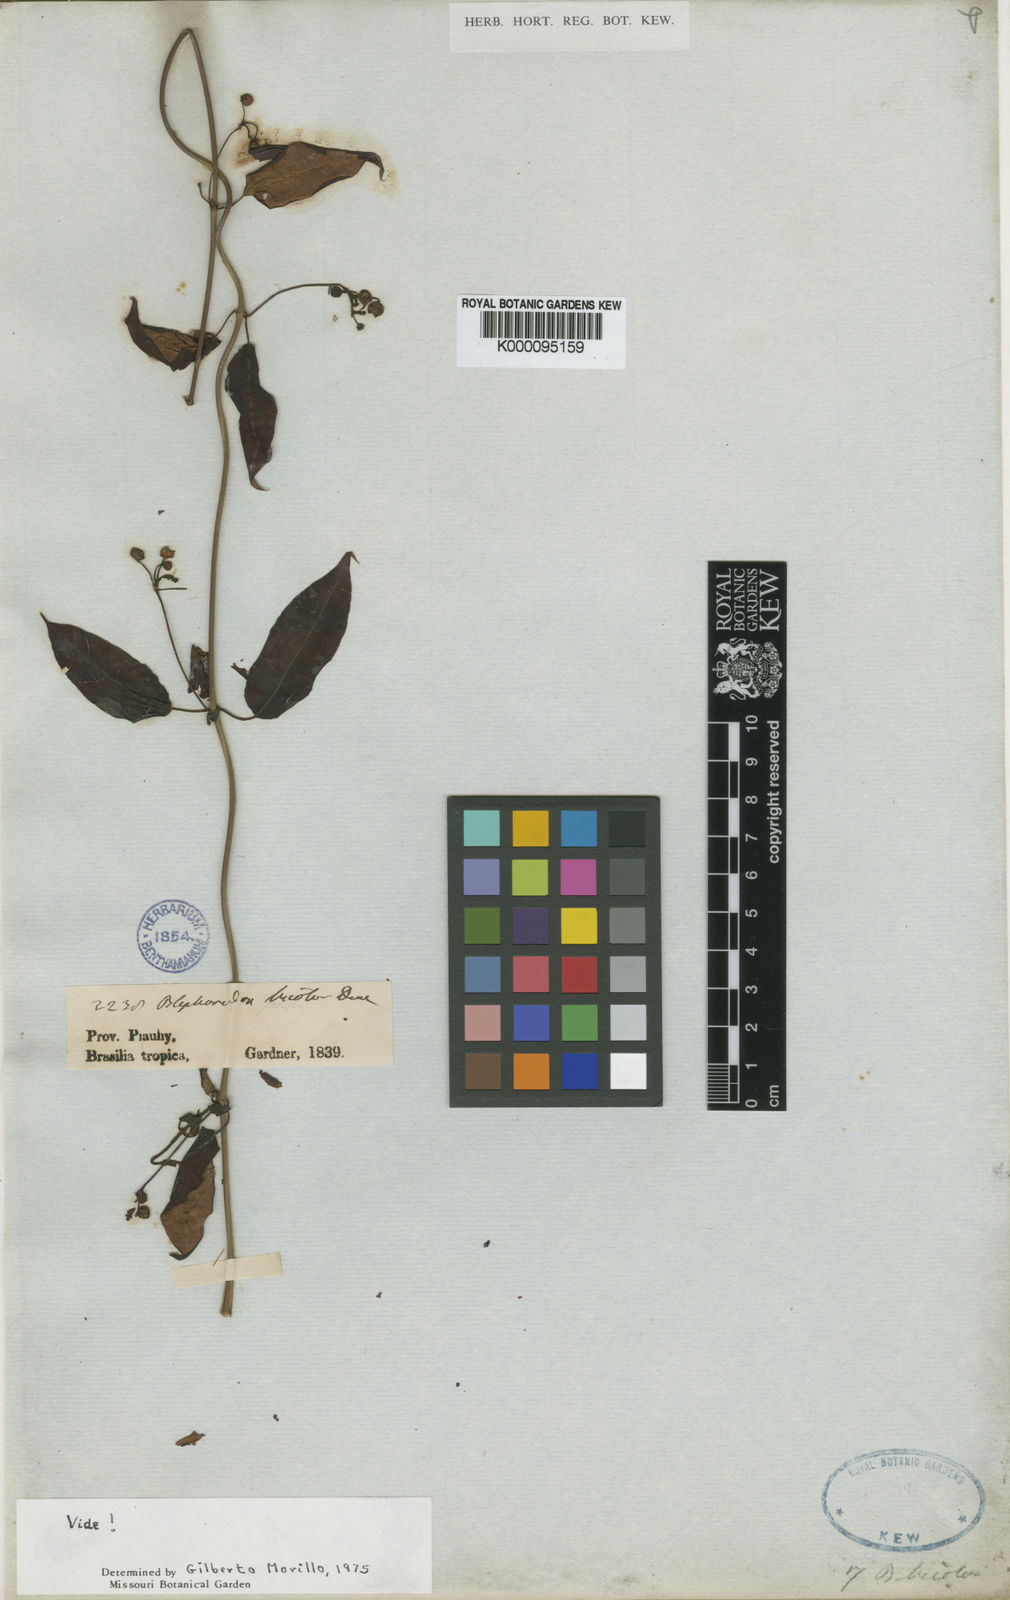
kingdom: Plantae
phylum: Tracheophyta
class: Magnoliopsida
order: Gentianales
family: Apocynaceae
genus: Blepharodon
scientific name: Blepharodon bicolor
